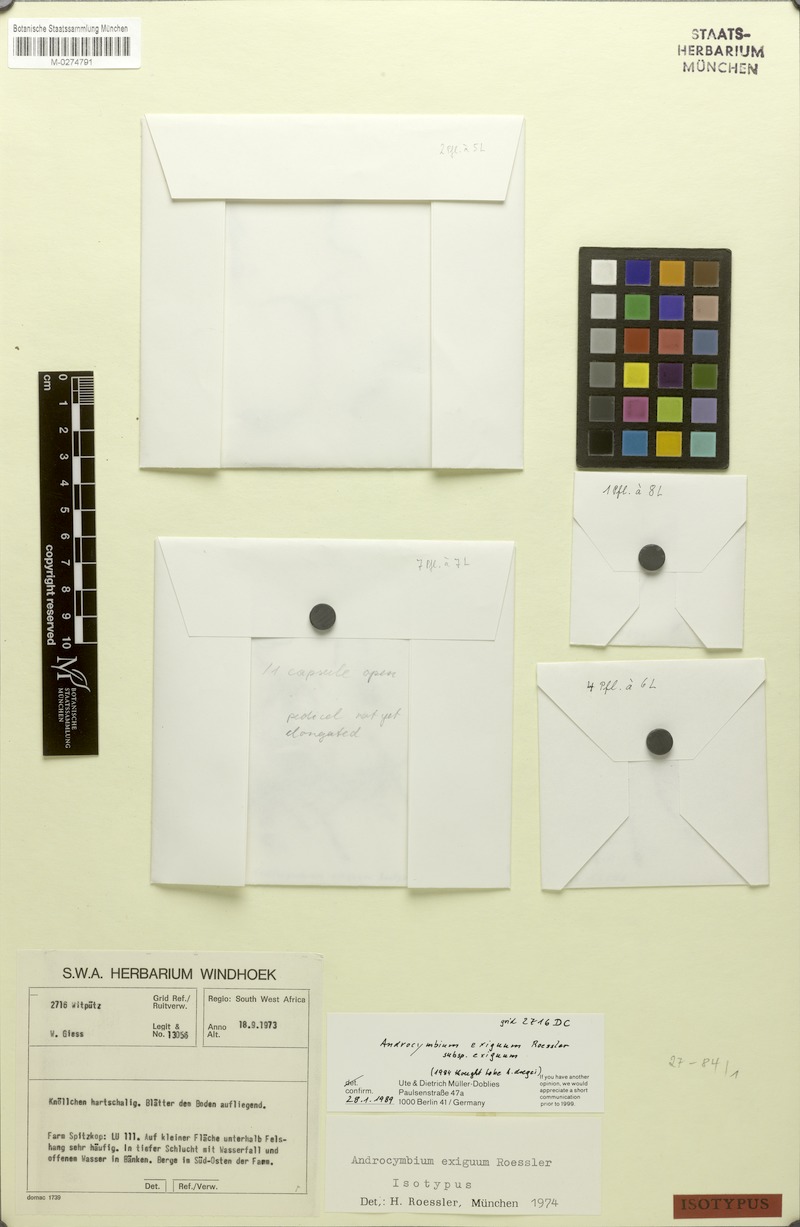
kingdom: Plantae
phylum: Tracheophyta
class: Liliopsida
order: Liliales
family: Colchicaceae
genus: Colchicum
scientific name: Colchicum exiguum
